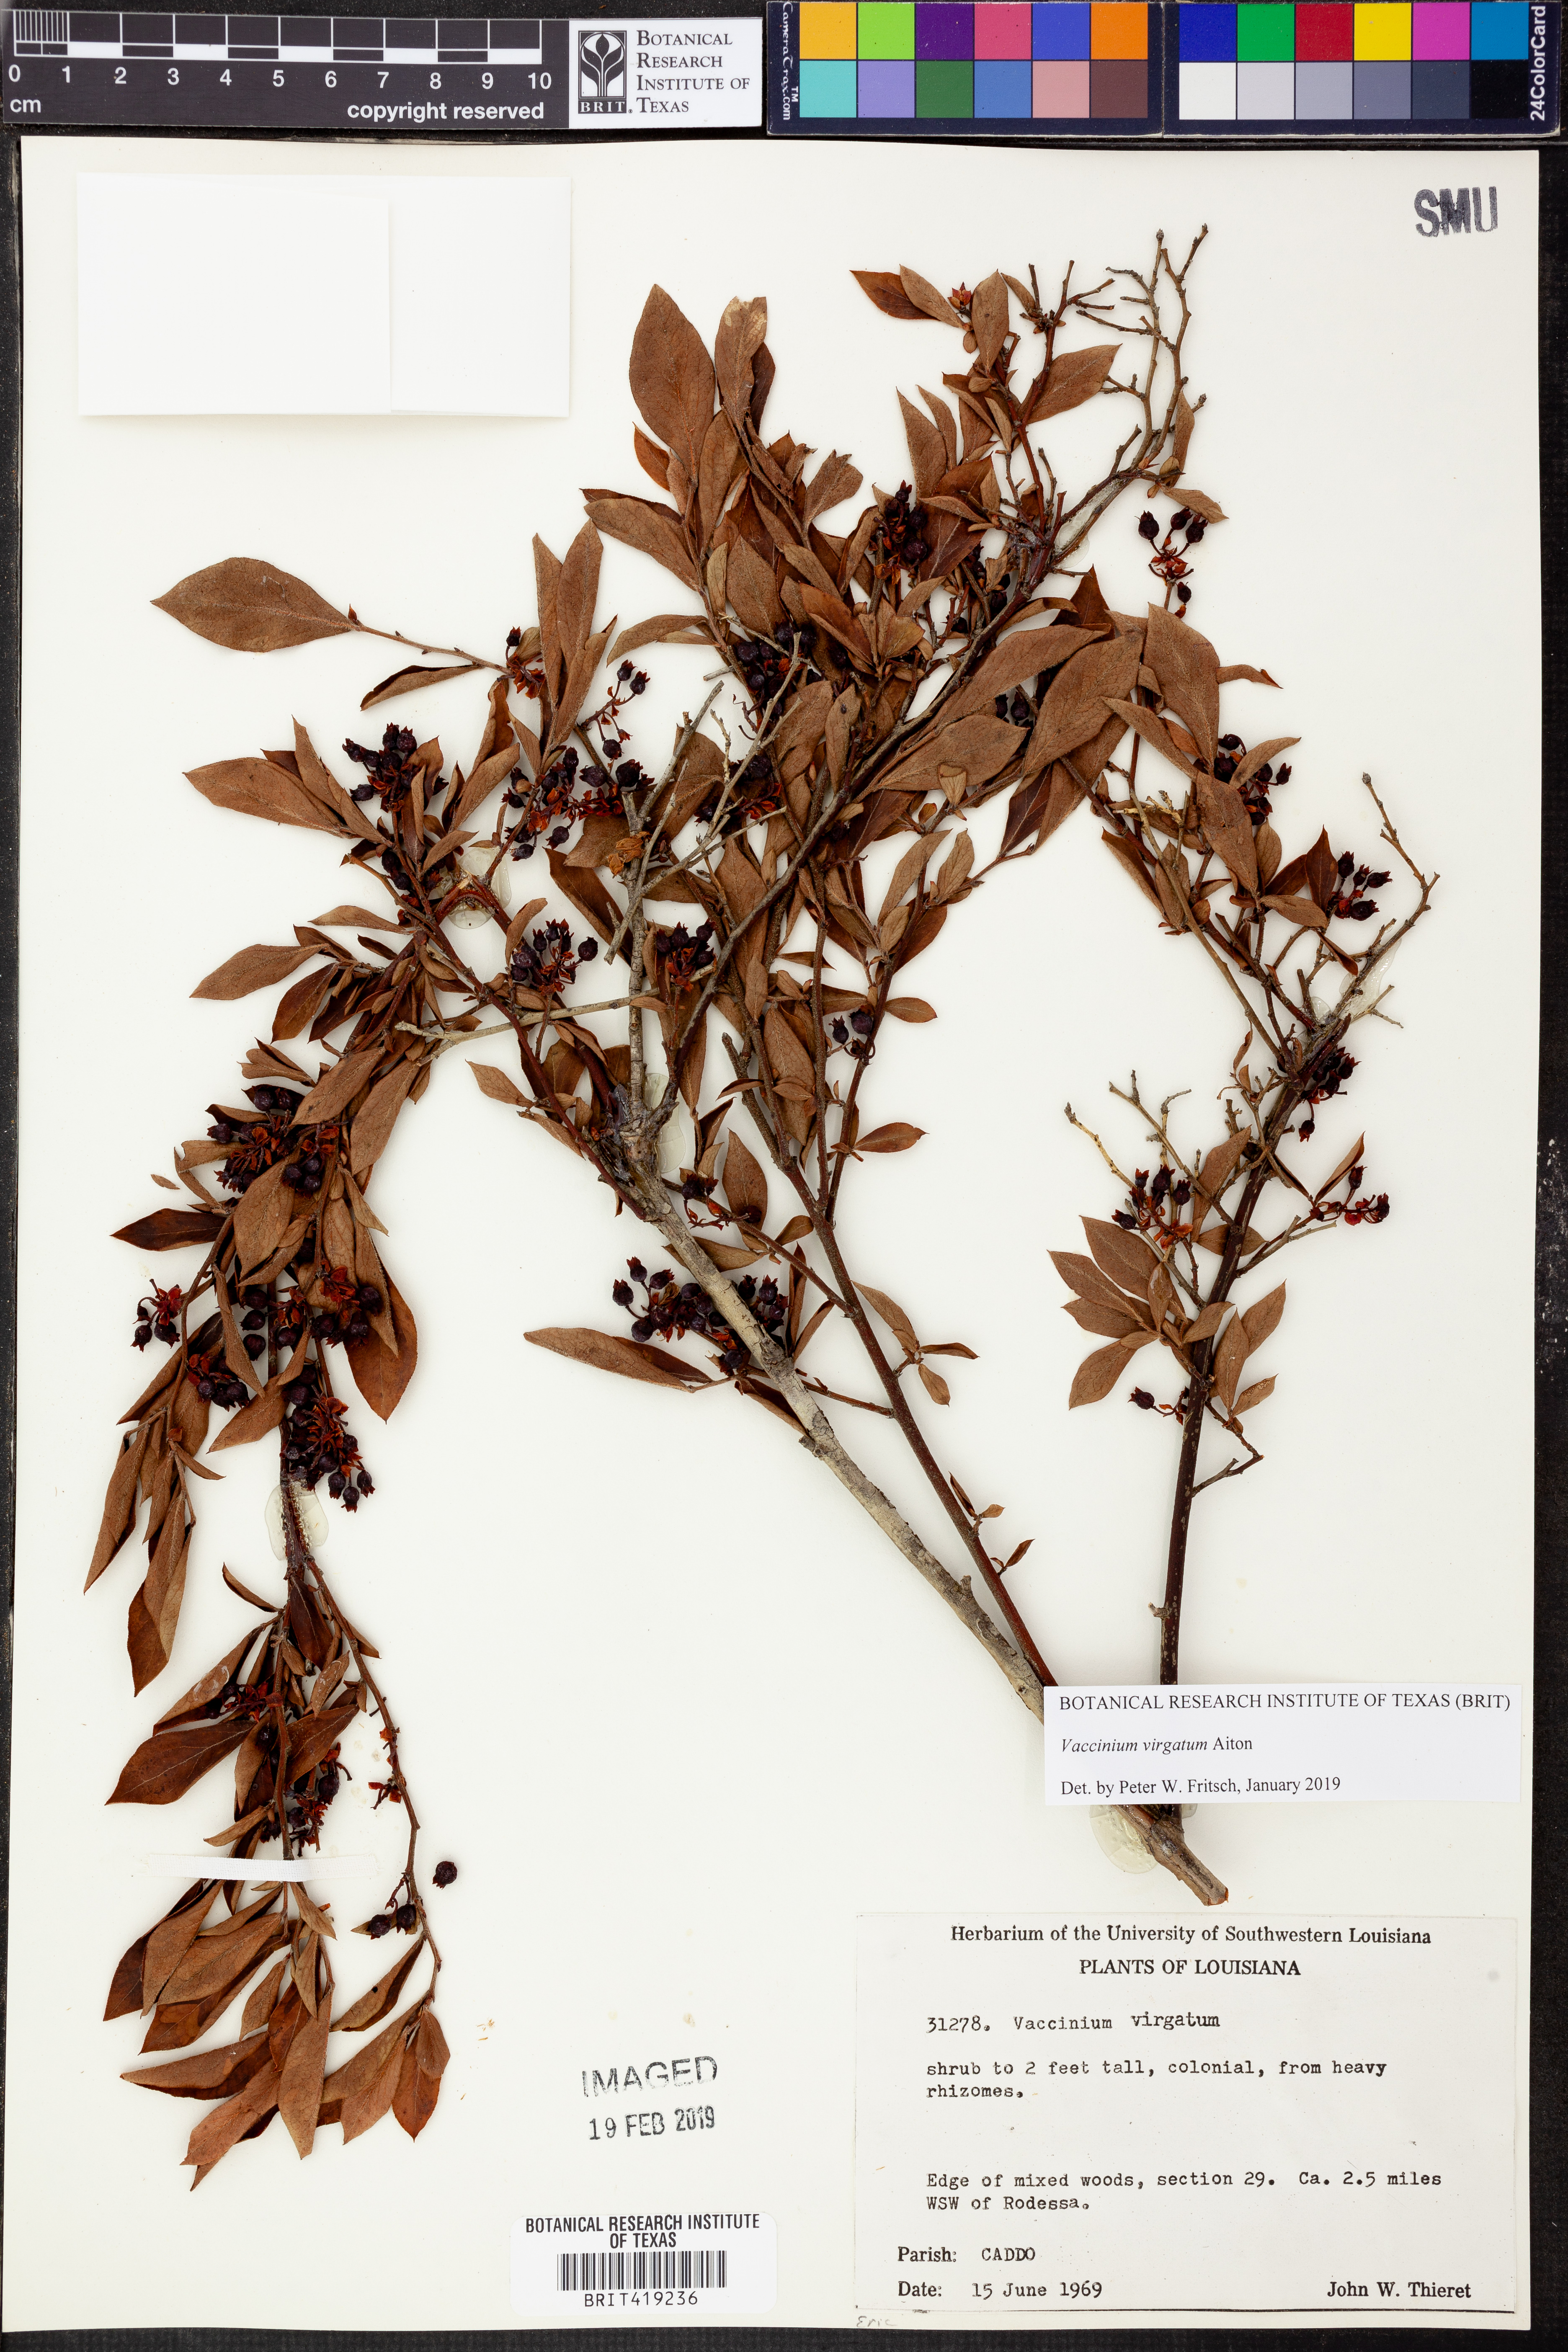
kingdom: Plantae
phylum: Tracheophyta
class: Magnoliopsida
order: Ericales
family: Ericaceae
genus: Vaccinium
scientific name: Vaccinium corymbosum
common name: Blueberry
